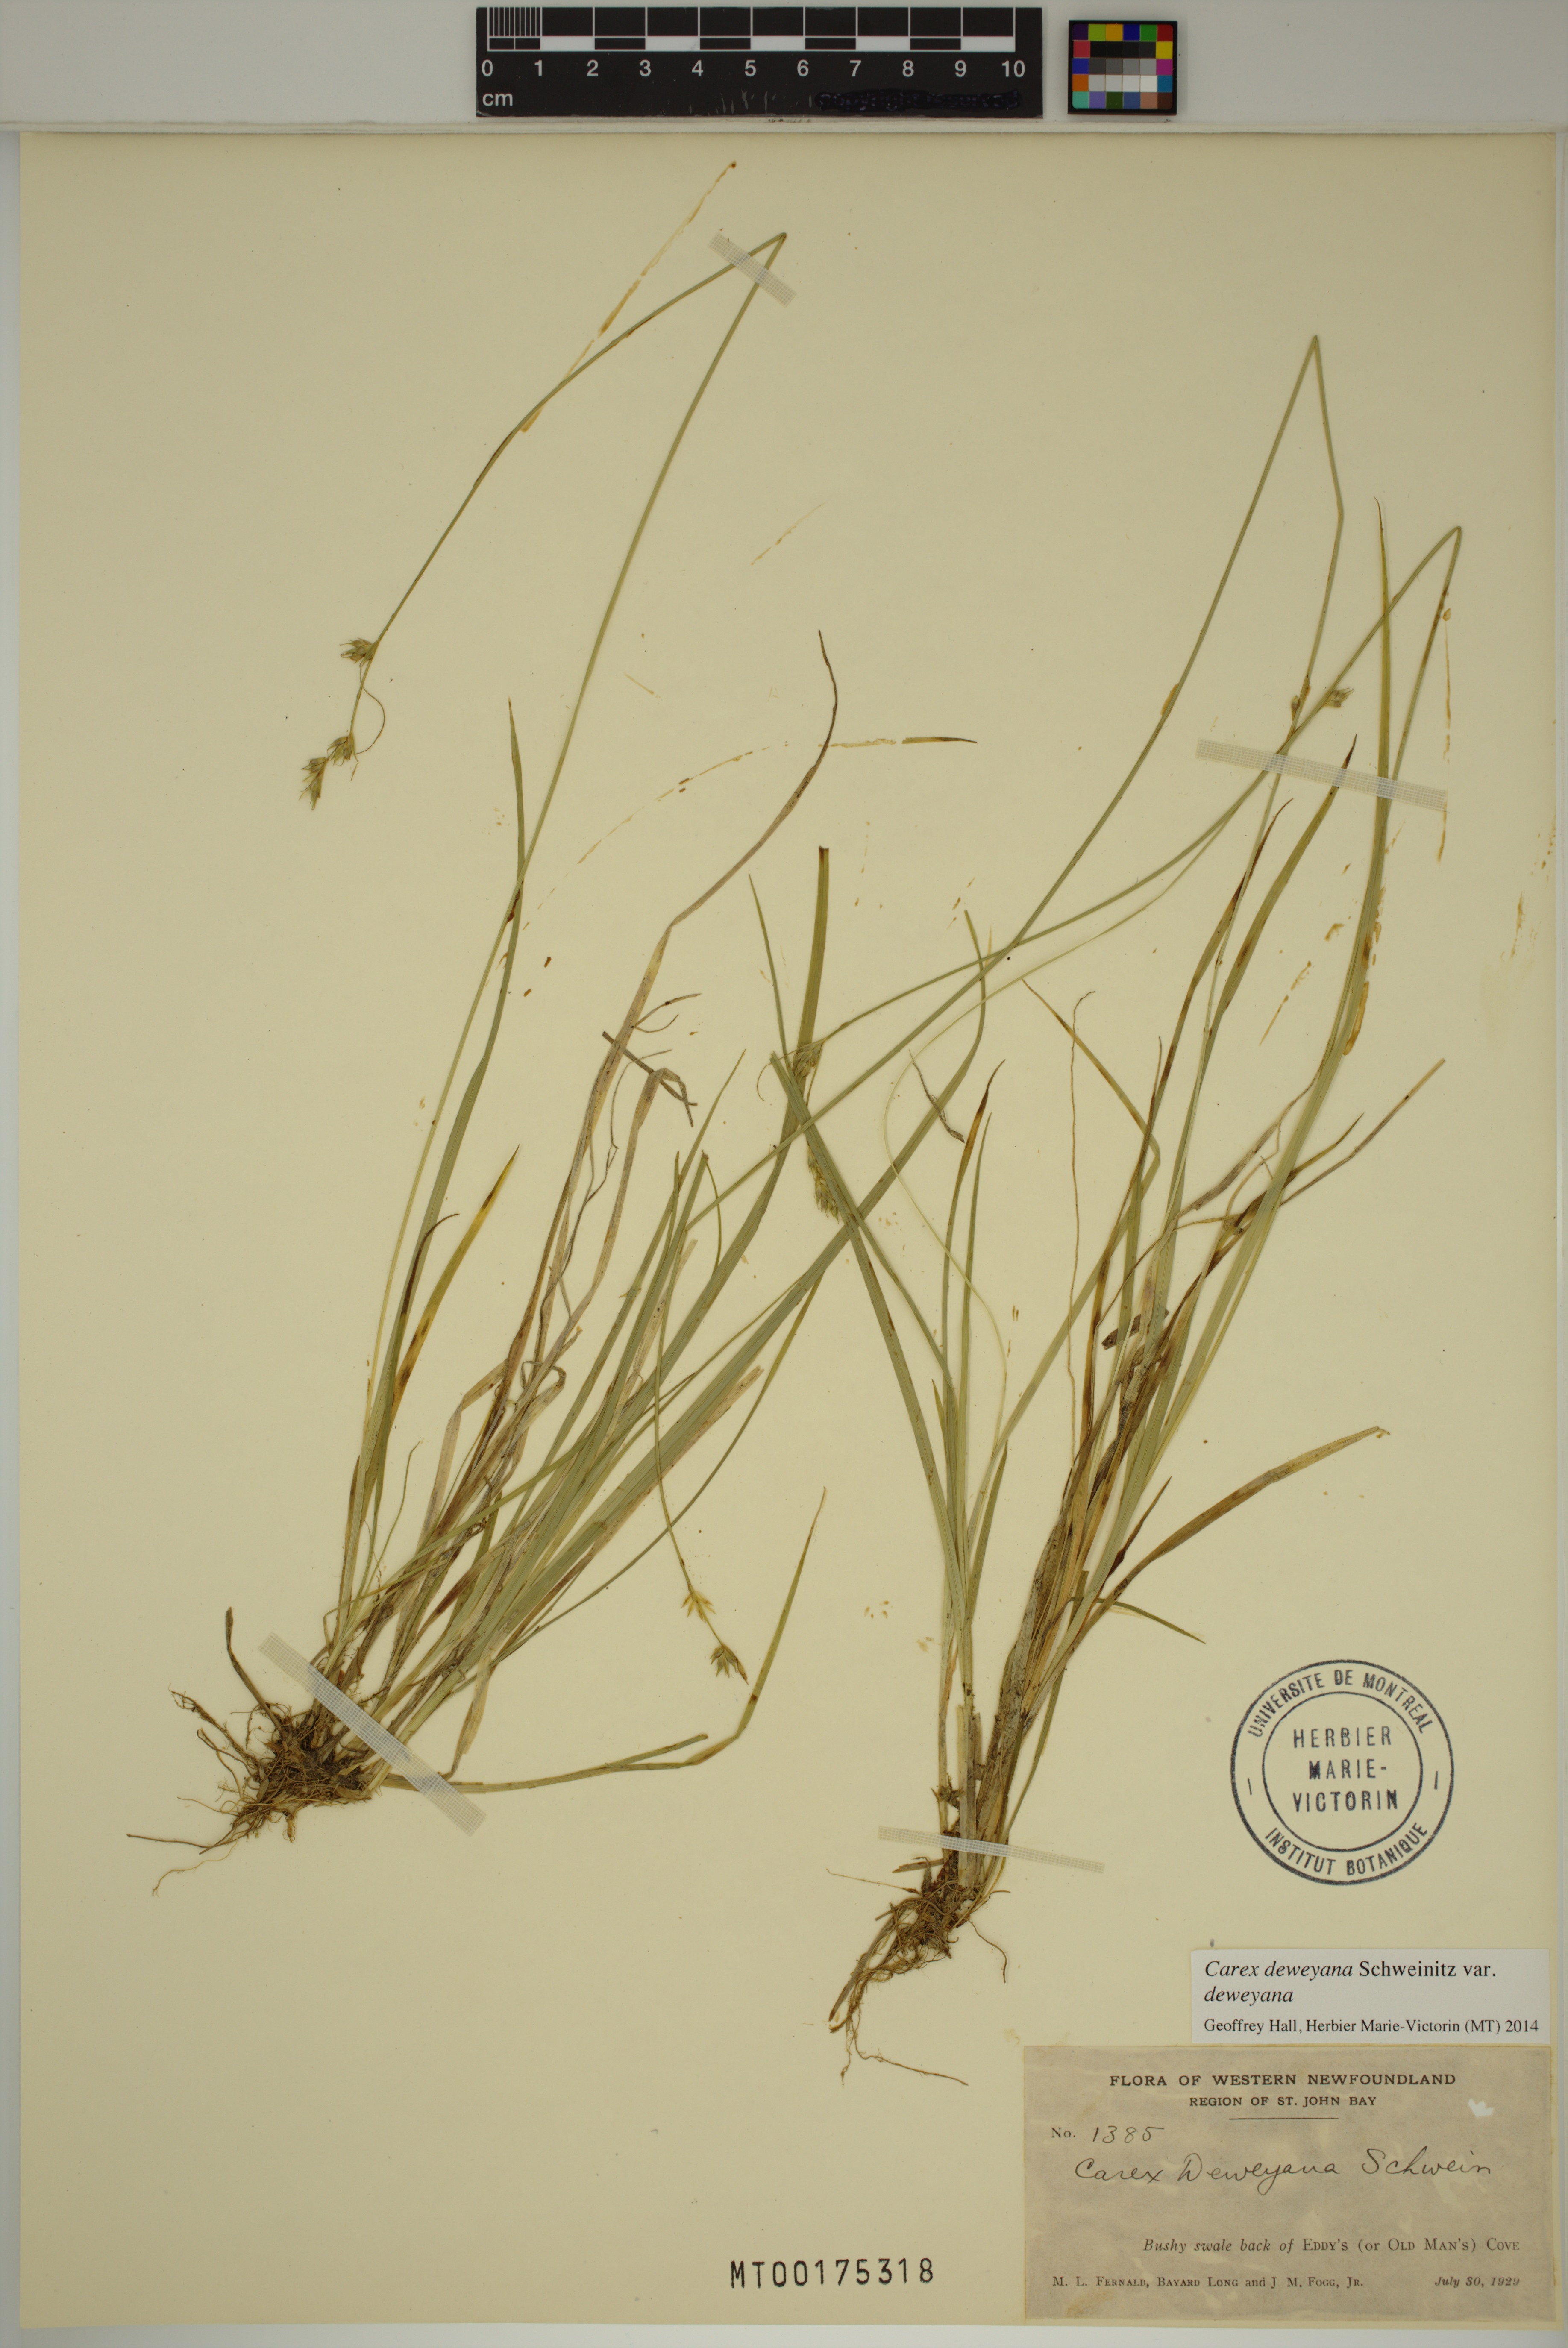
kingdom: Plantae
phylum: Tracheophyta
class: Liliopsida
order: Poales
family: Cyperaceae
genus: Carex
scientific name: Carex deweyana
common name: Dewey's sedge
